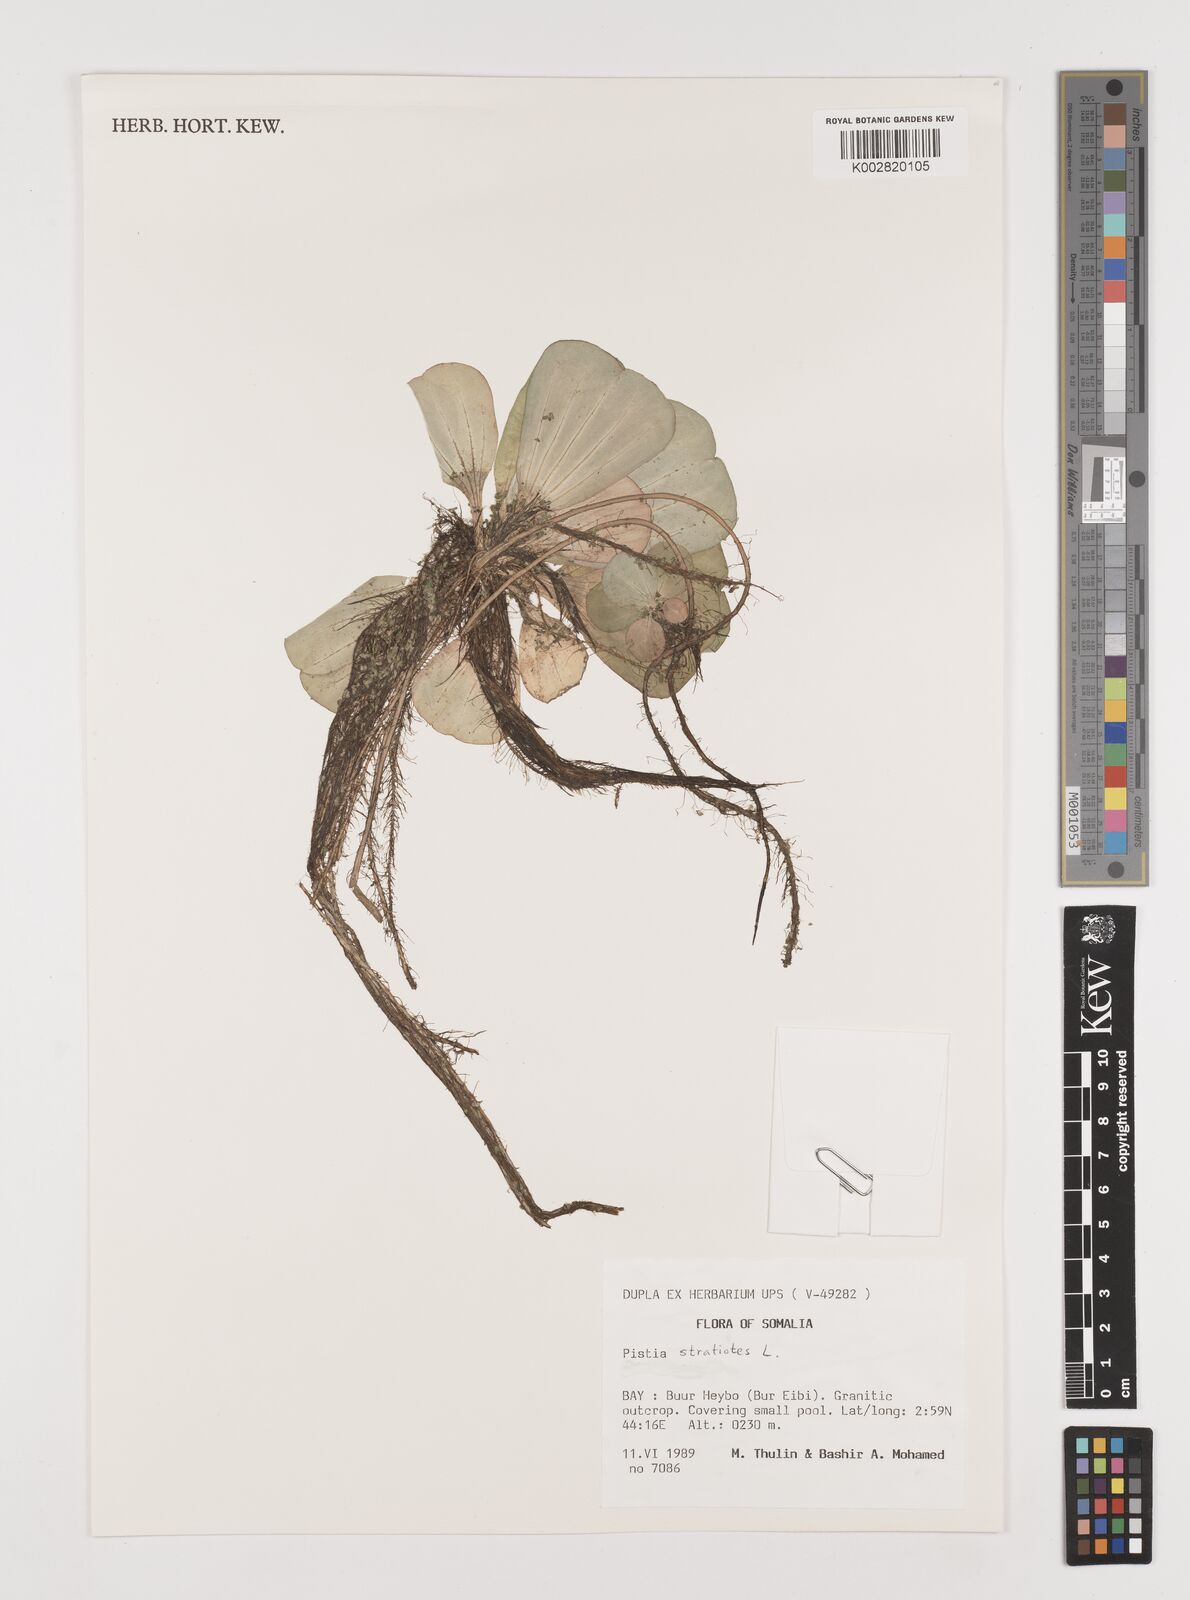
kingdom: Plantae
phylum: Tracheophyta
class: Liliopsida
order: Alismatales
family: Araceae
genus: Pistia
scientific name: Pistia stratiotes
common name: Water lettuce
